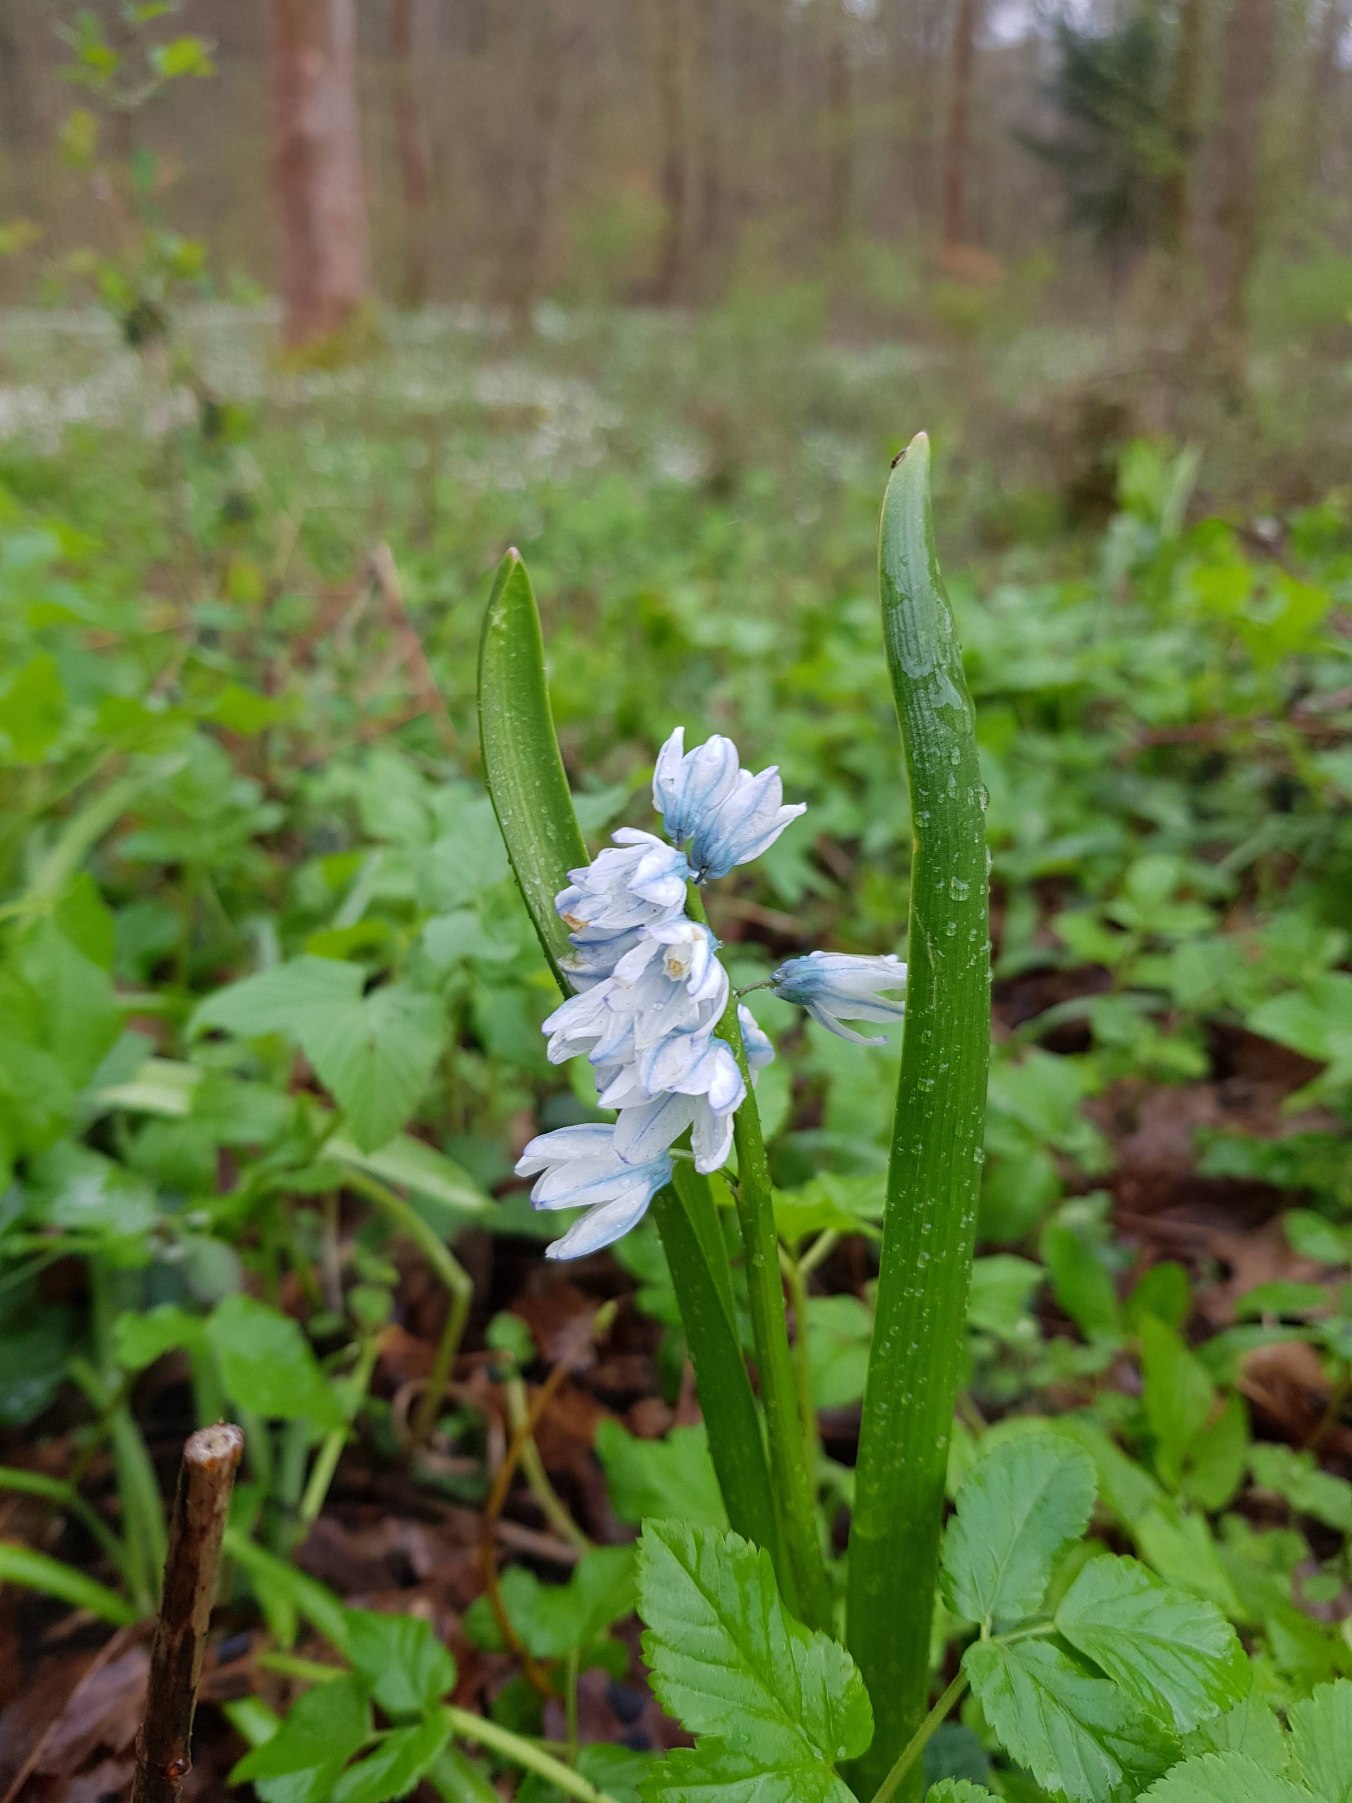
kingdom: Plantae
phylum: Tracheophyta
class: Liliopsida
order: Asparagales
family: Asparagaceae
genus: Puschkinia
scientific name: Puschkinia scilloides
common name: Porcelænshyacint
